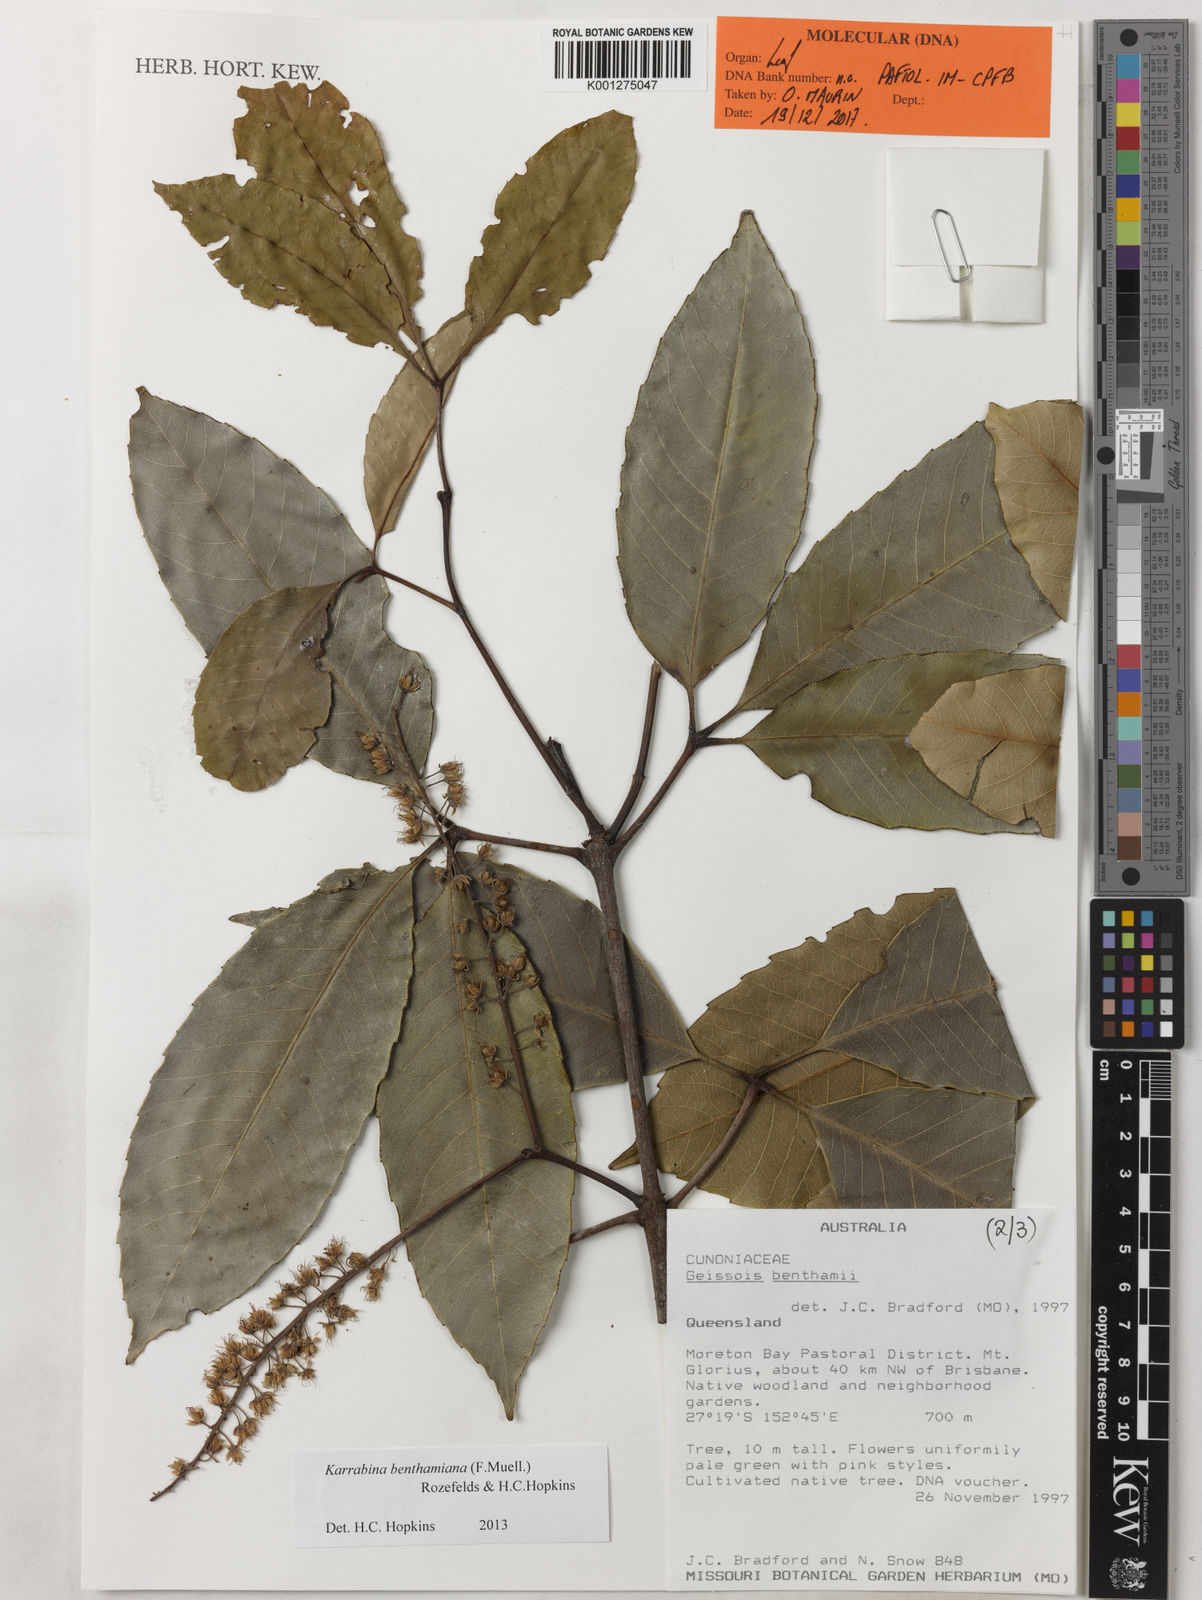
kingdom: Plantae
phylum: Tracheophyta
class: Magnoliopsida
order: Oxalidales
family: Cunoniaceae
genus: Karrabina
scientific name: Karrabina benthamiana
